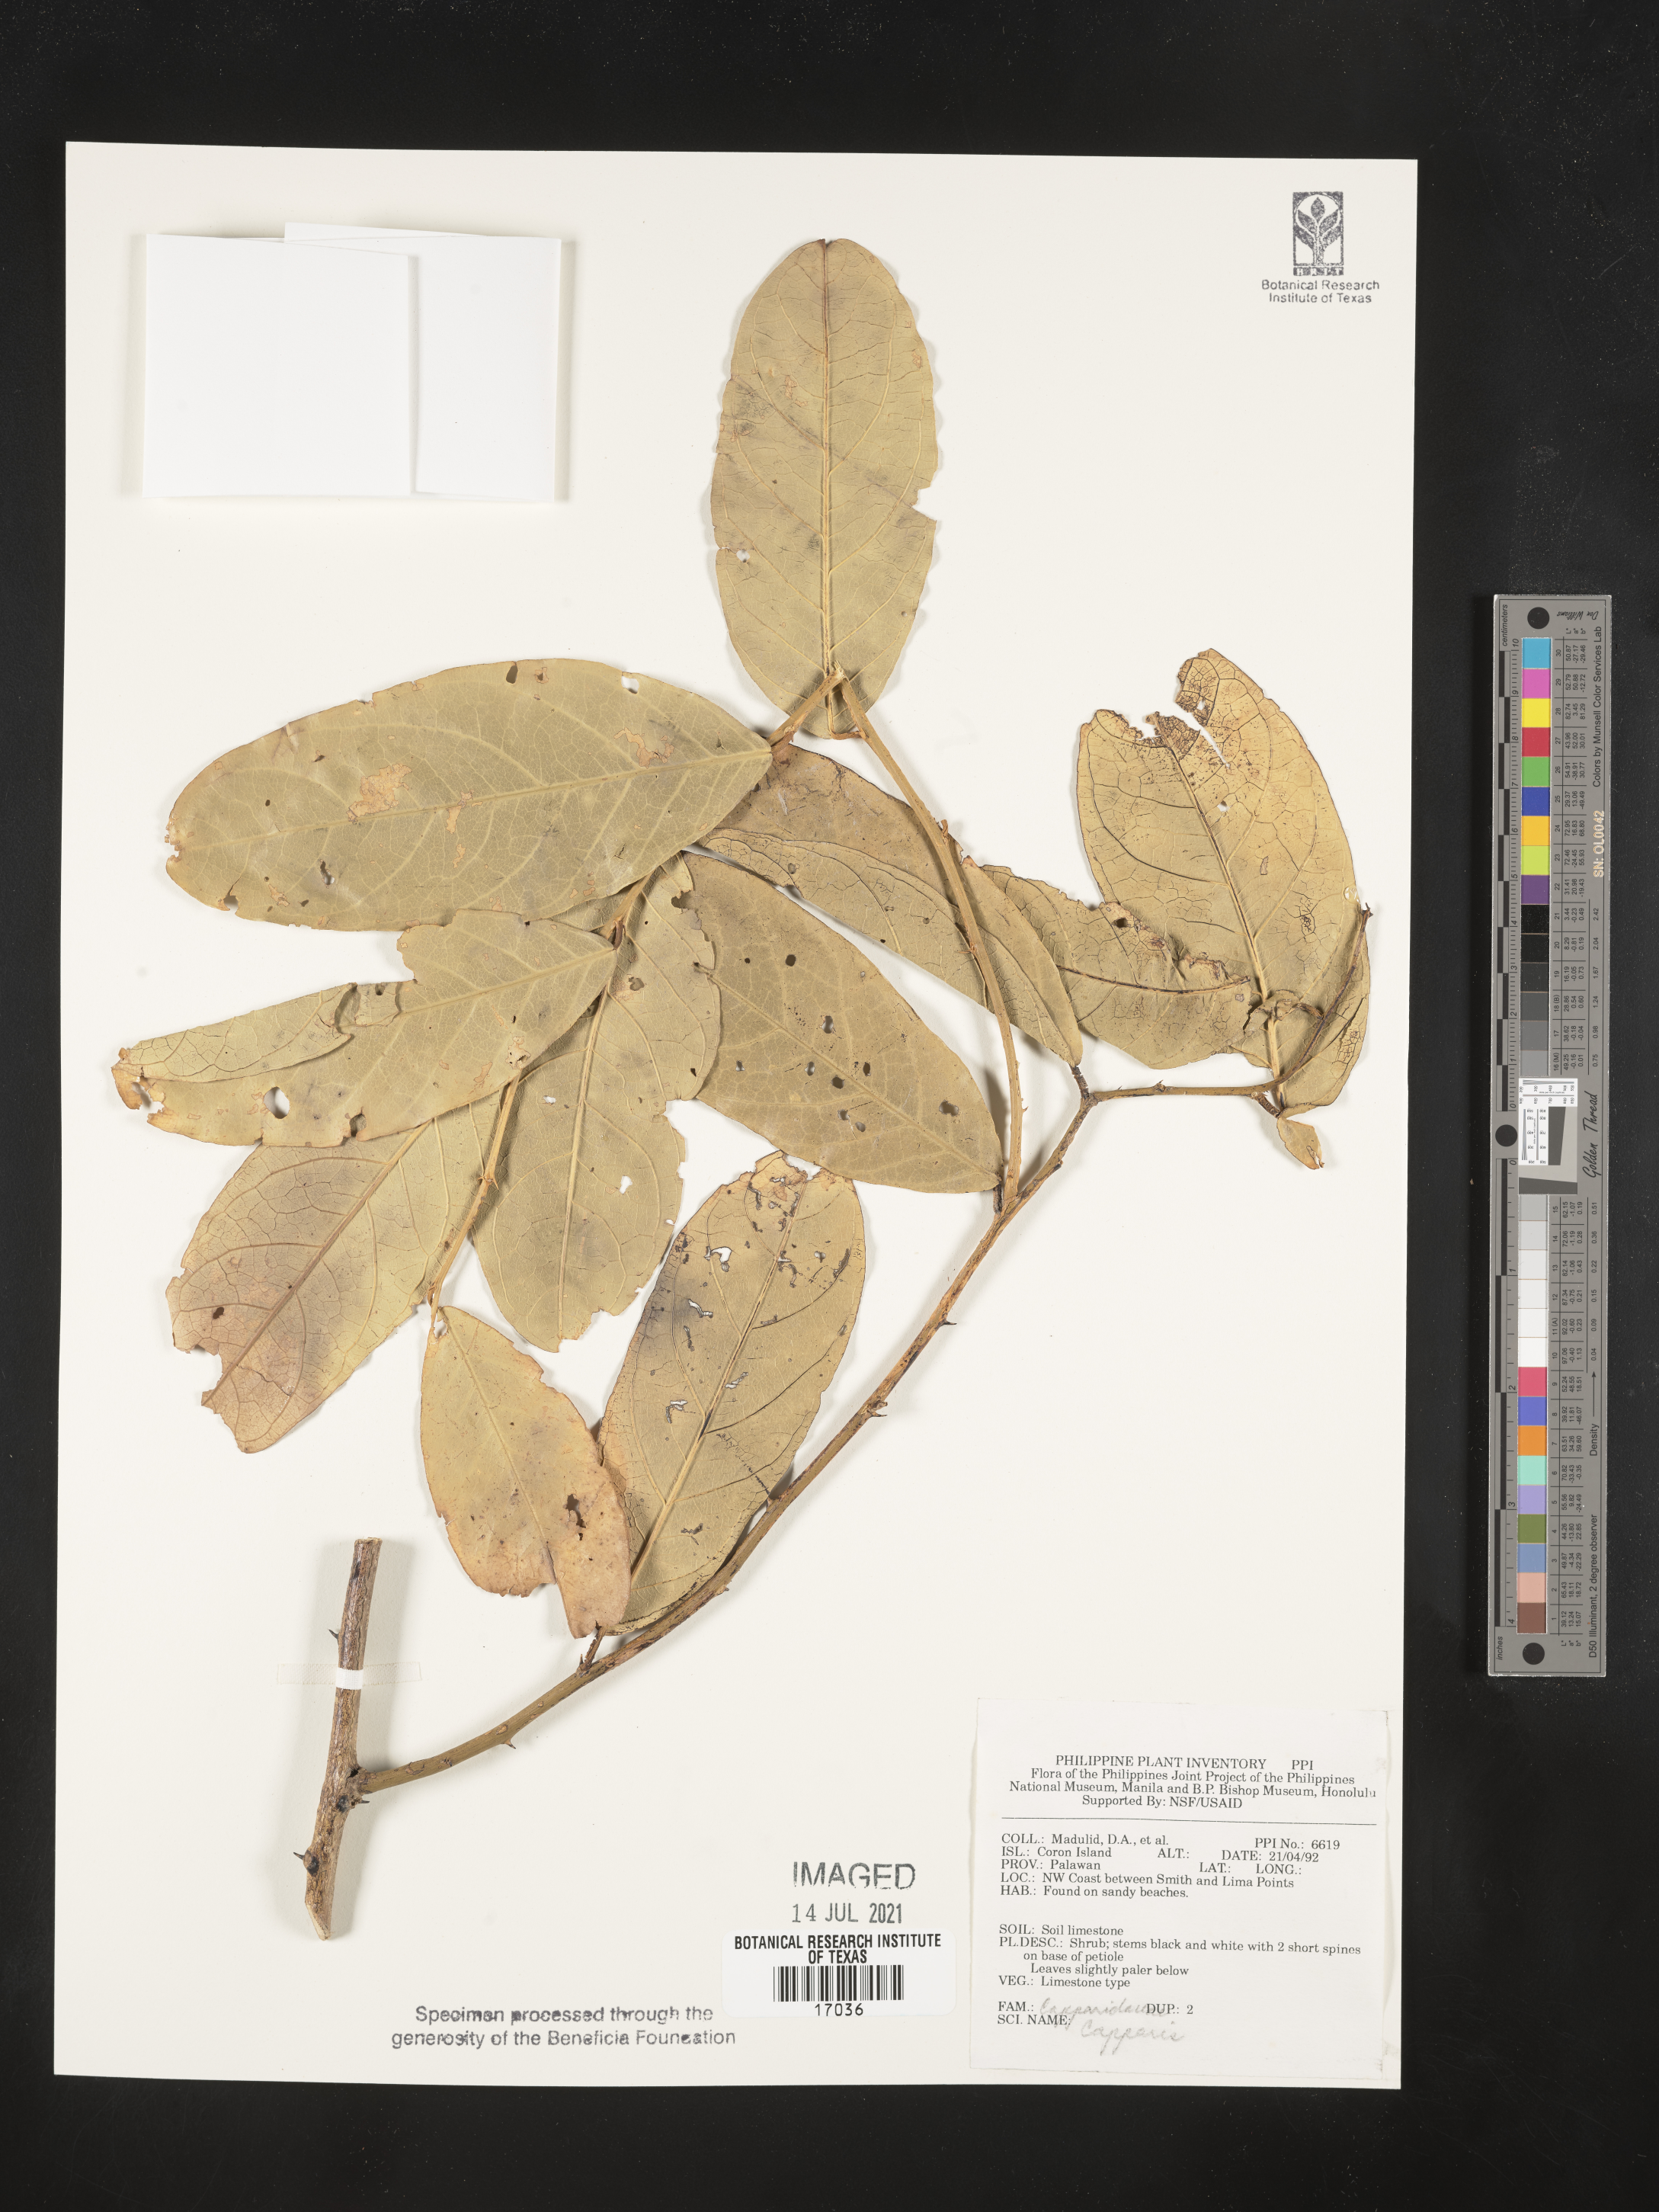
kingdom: Plantae
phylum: Tracheophyta
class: Magnoliopsida
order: Brassicales
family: Capparaceae
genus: Capparis
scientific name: Capparis
